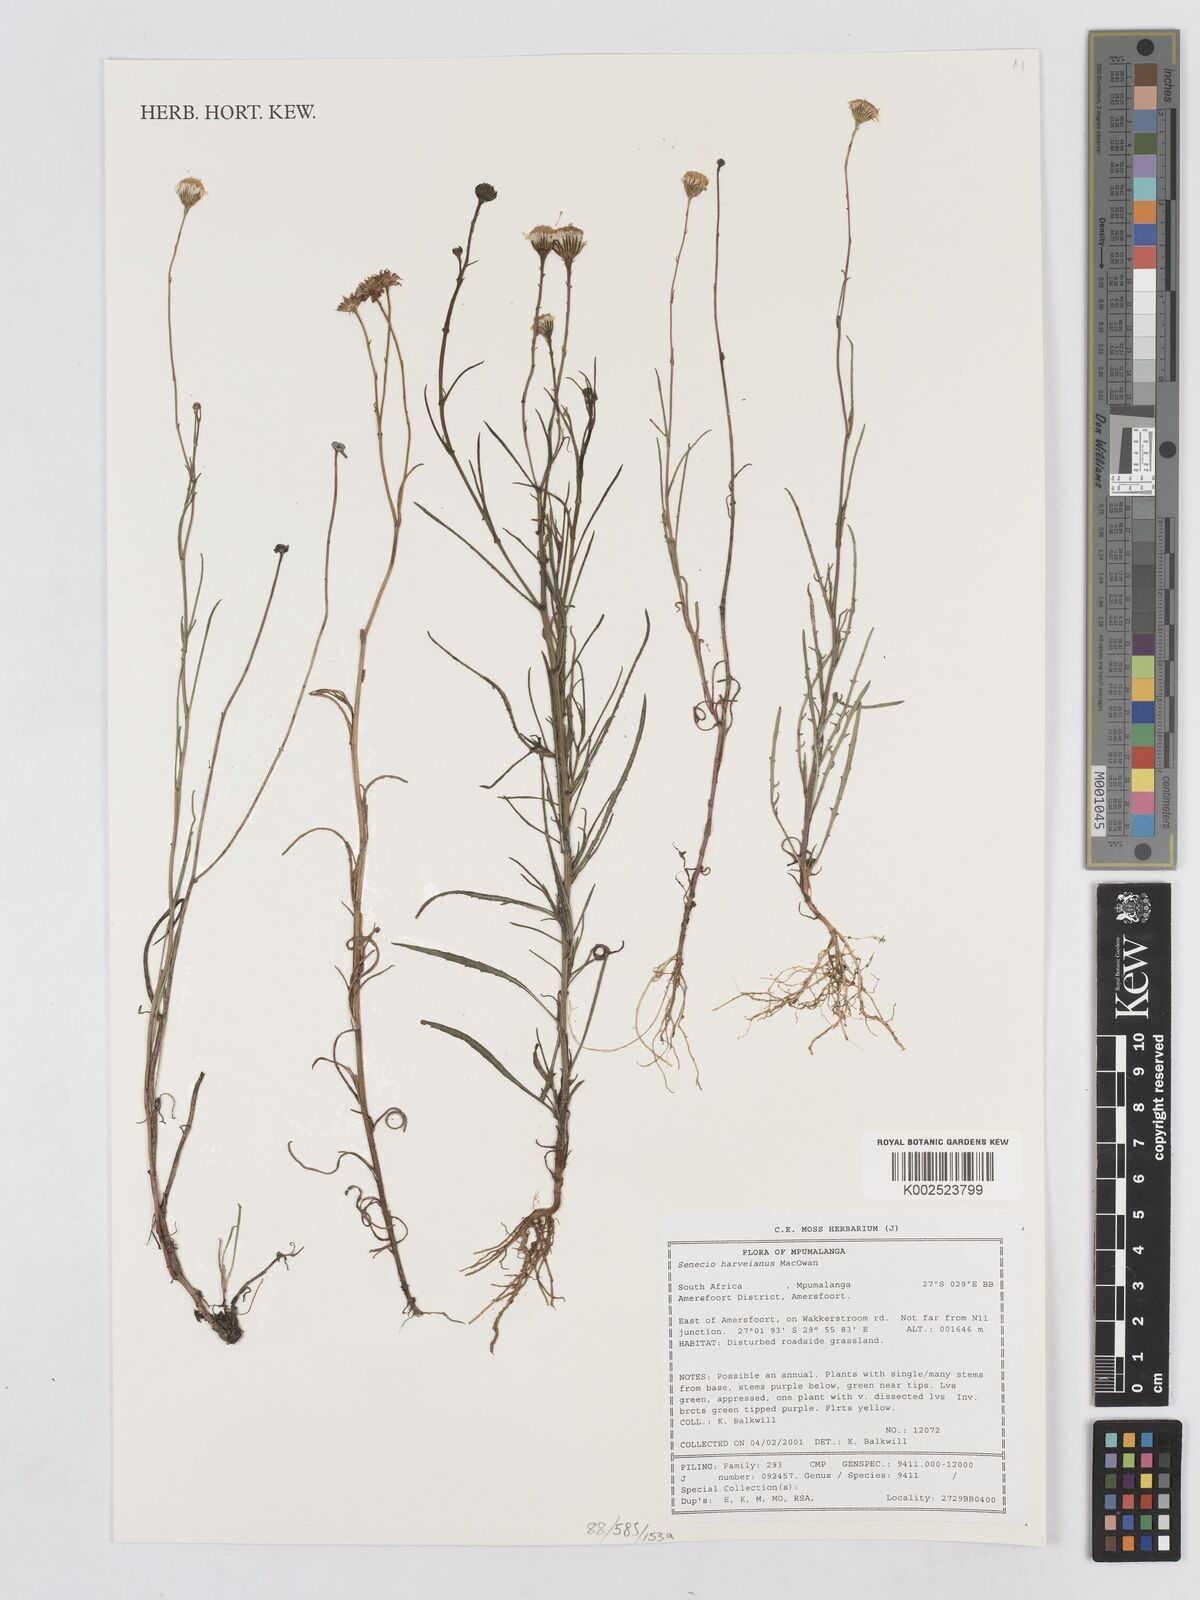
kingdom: Plantae
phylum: Tracheophyta
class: Magnoliopsida
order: Asterales
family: Asteraceae
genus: Senecio
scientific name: Senecio harveyanus
